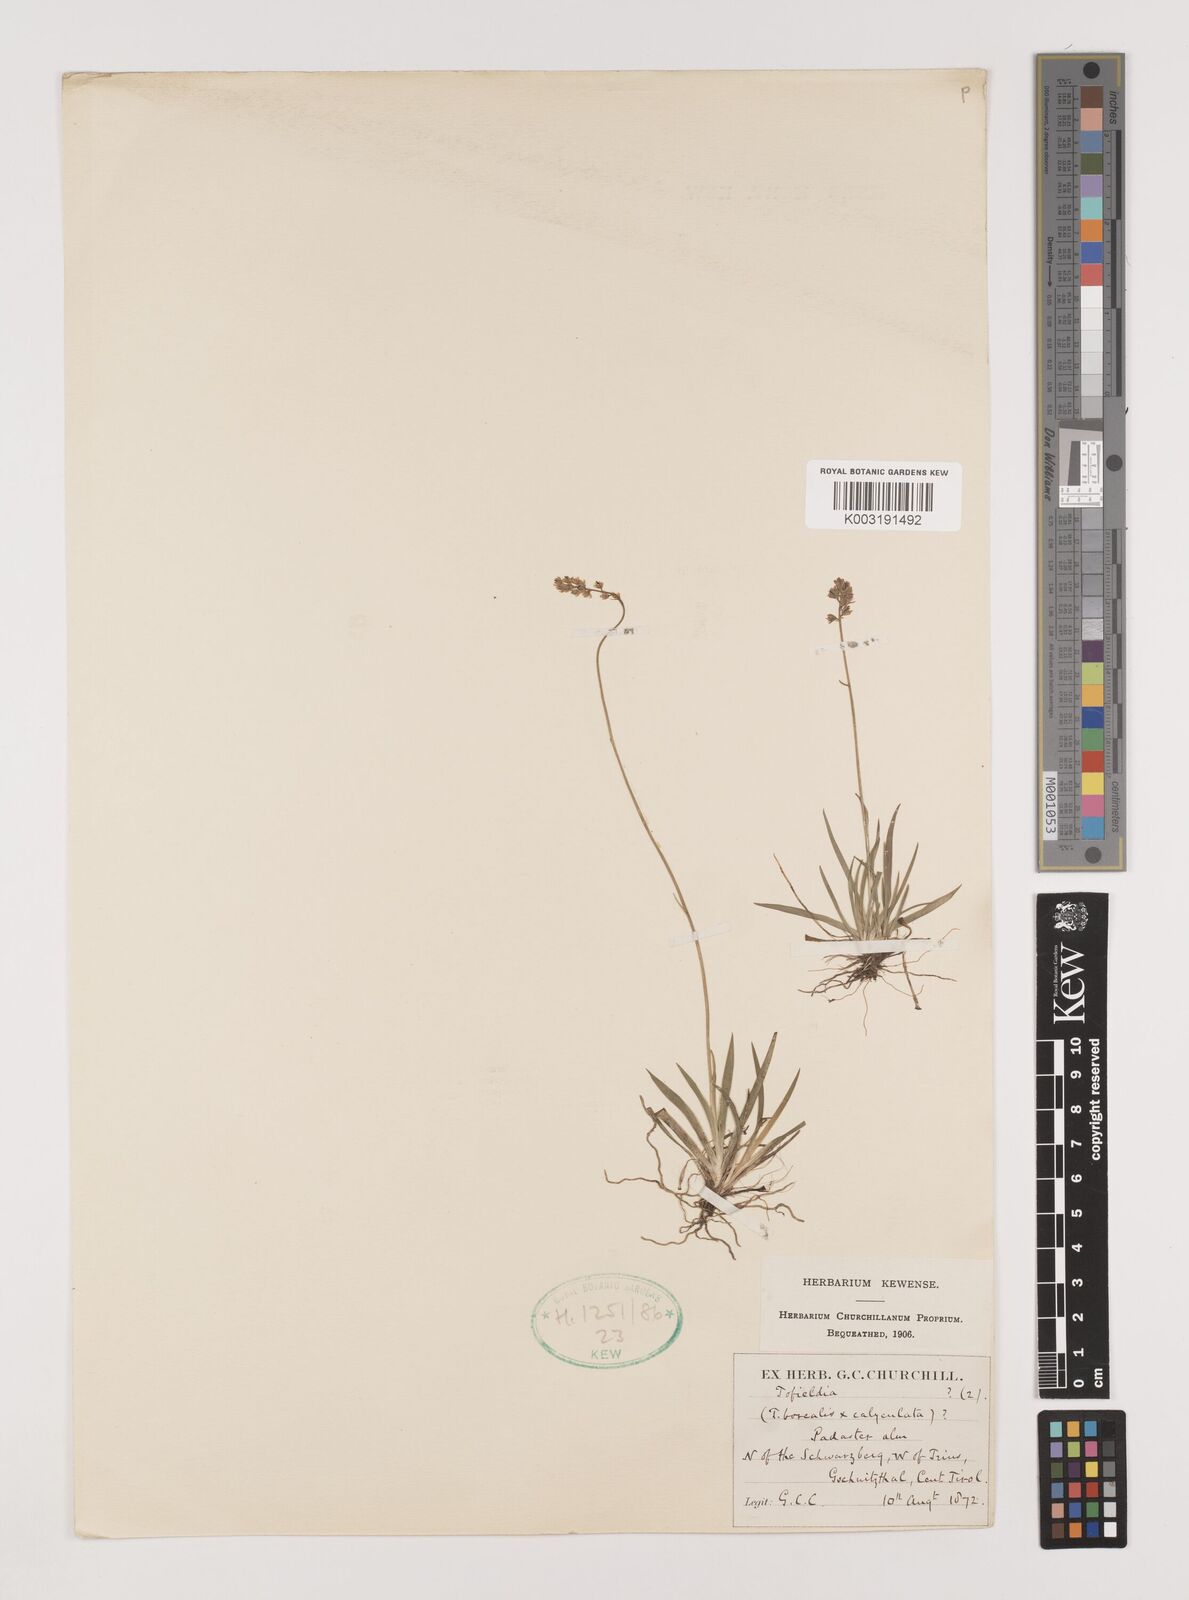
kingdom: Plantae
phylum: Tracheophyta
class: Liliopsida
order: Alismatales
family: Tofieldiaceae
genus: Tofieldia
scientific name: Tofieldia
